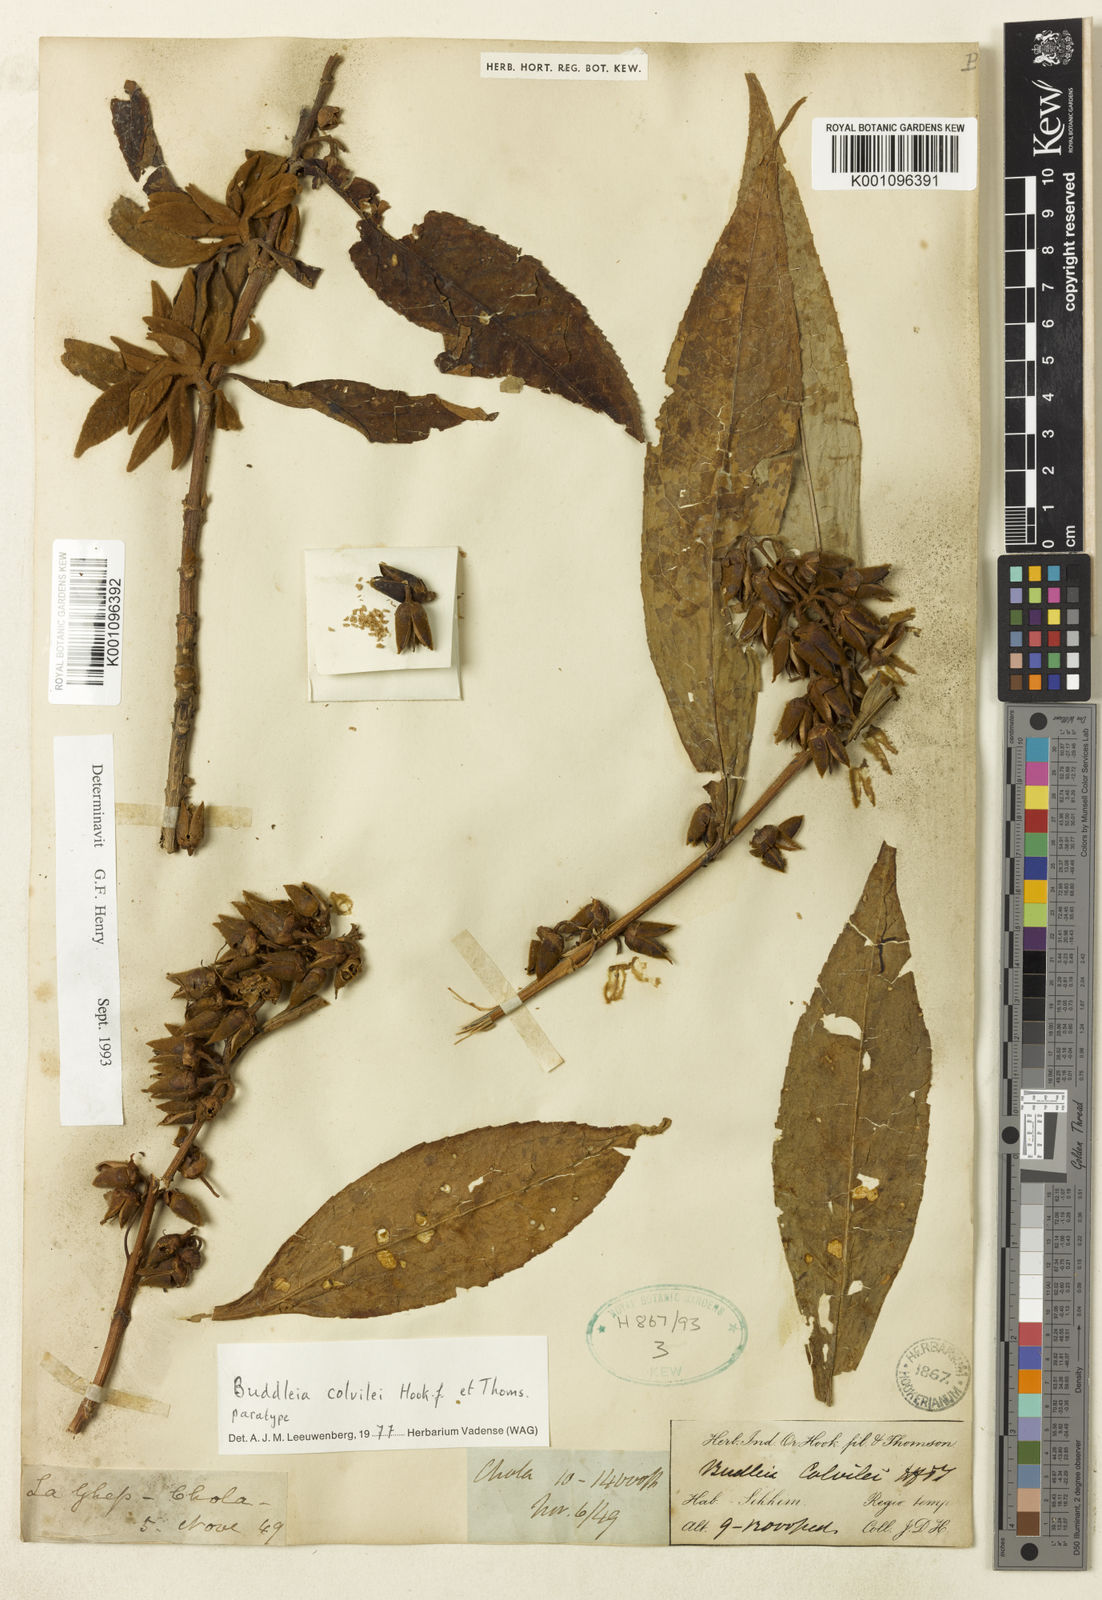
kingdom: Plantae
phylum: Tracheophyta
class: Magnoliopsida
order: Lamiales
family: Scrophulariaceae
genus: Buddleja
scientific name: Buddleja colvilei
